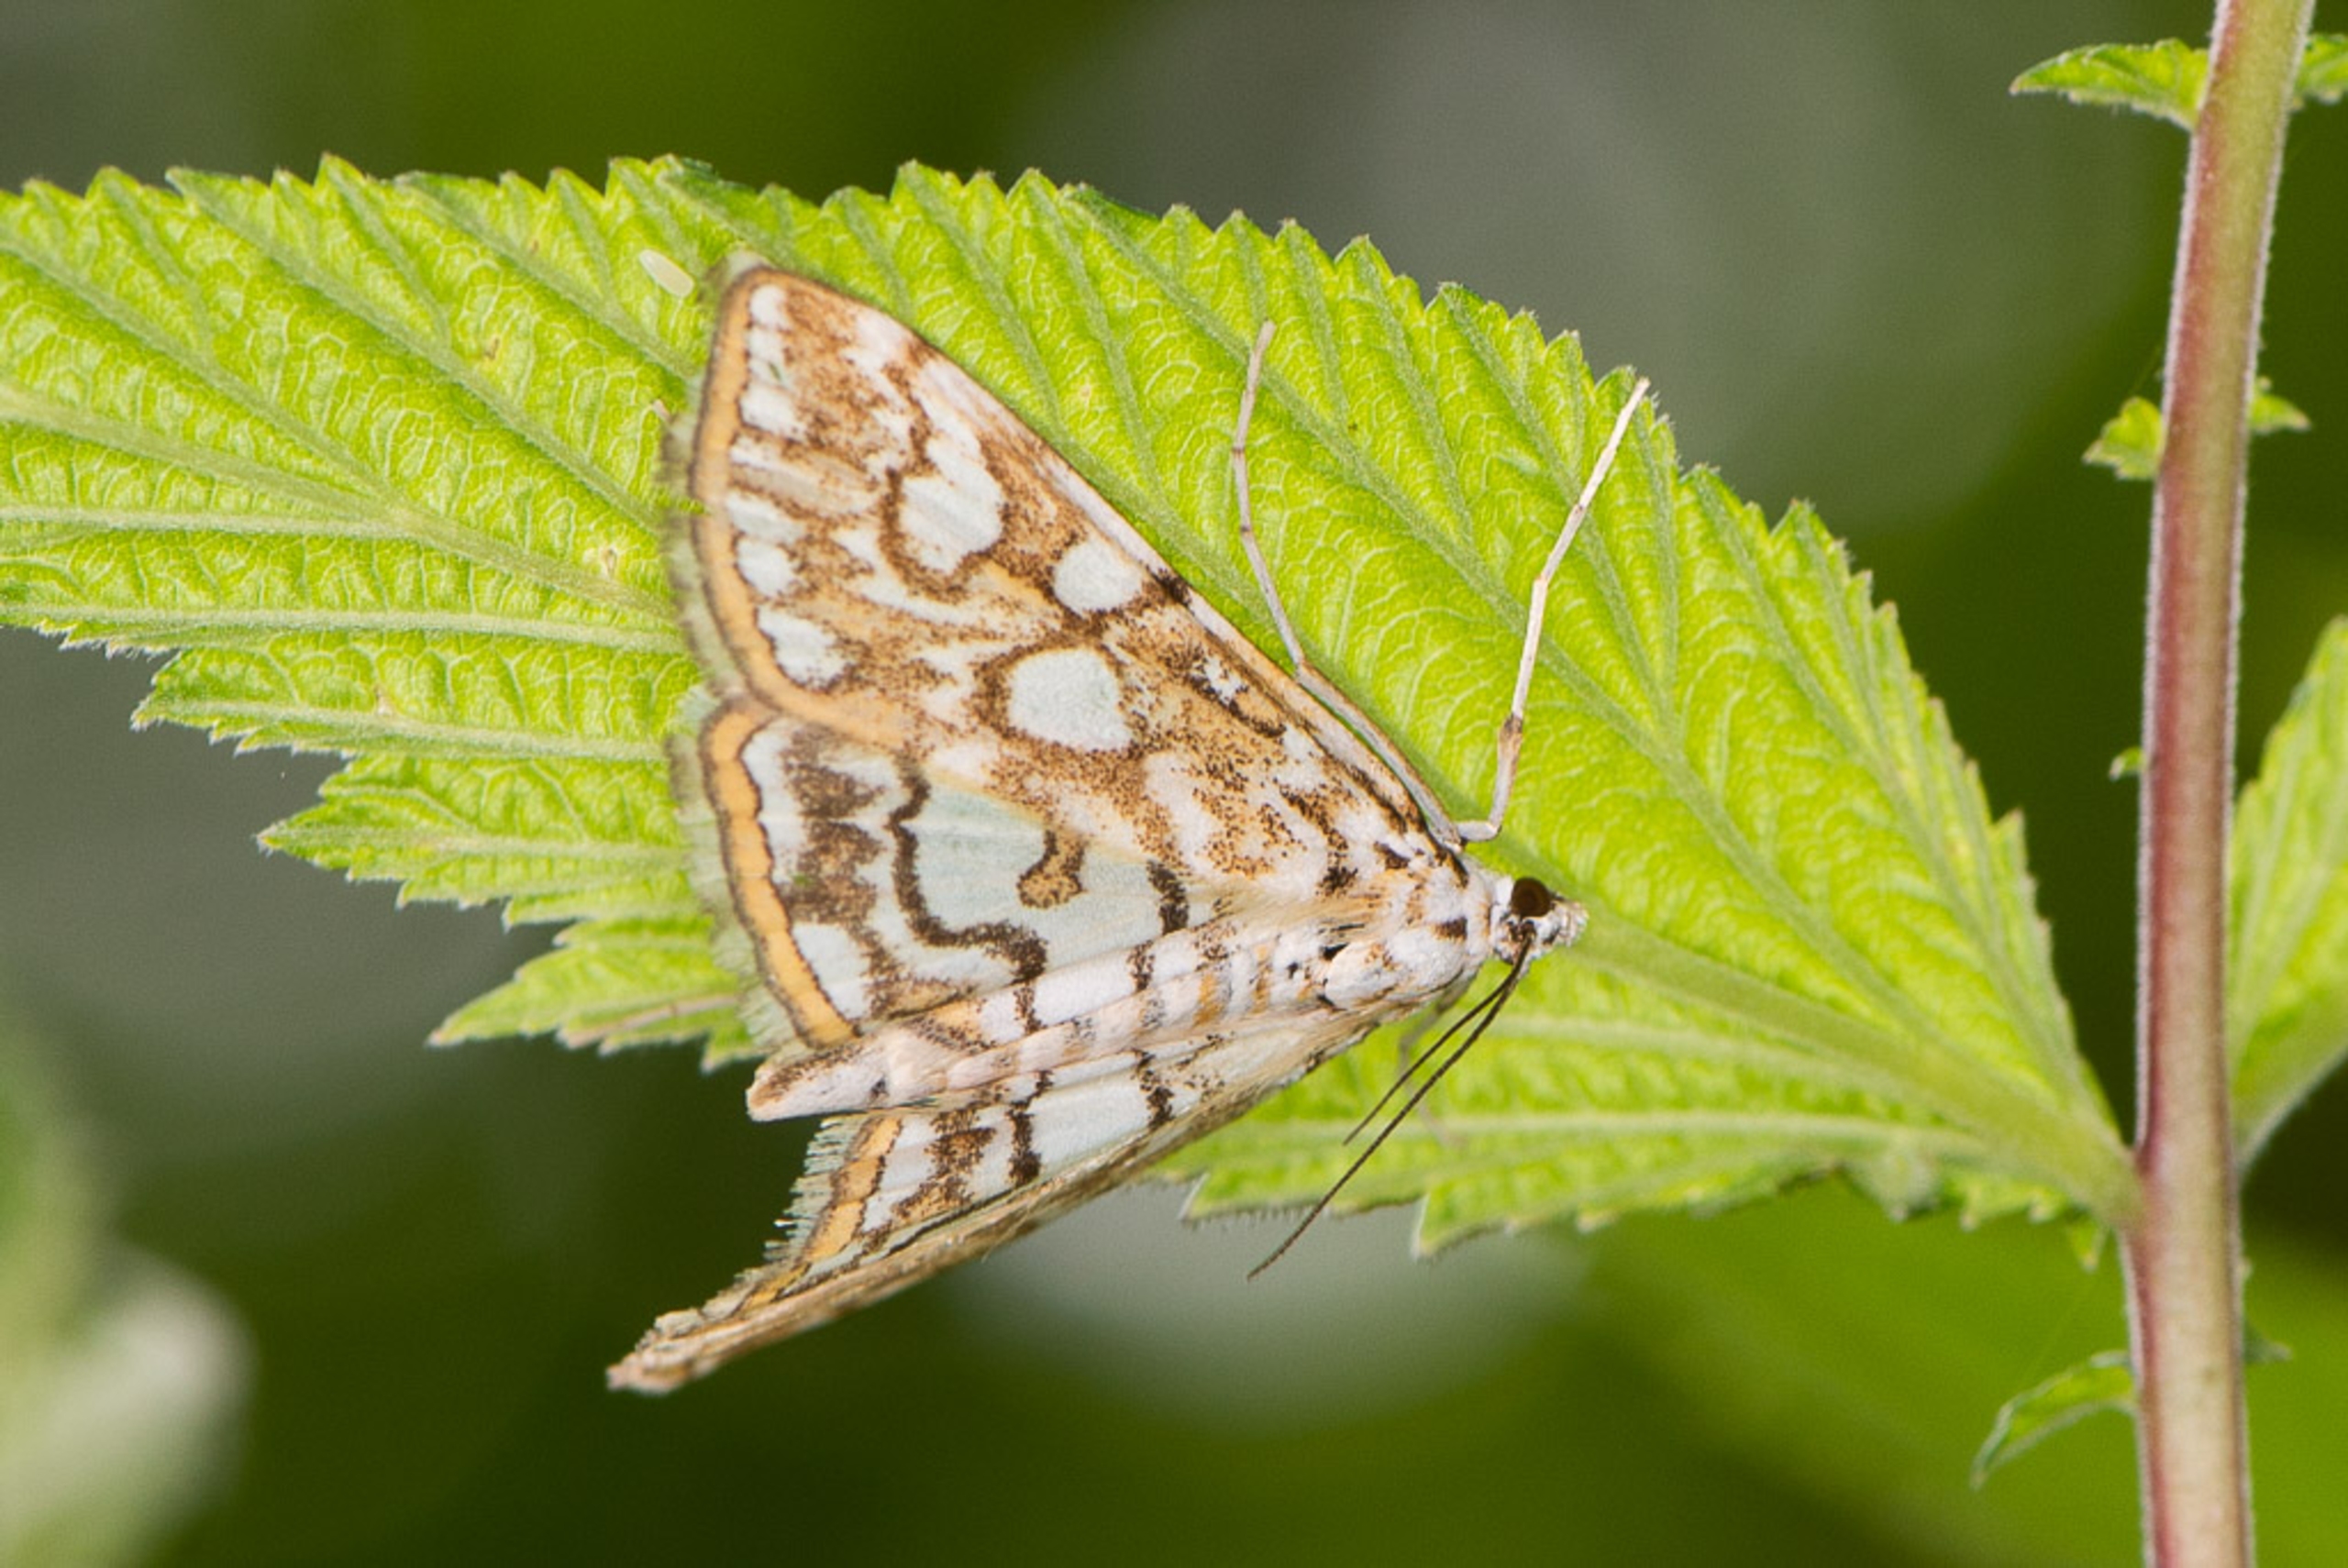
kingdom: Animalia
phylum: Arthropoda
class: Insecta
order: Lepidoptera
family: Crambidae
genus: Elophila
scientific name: Elophila nymphaeata
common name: Åkandehalvmøl
